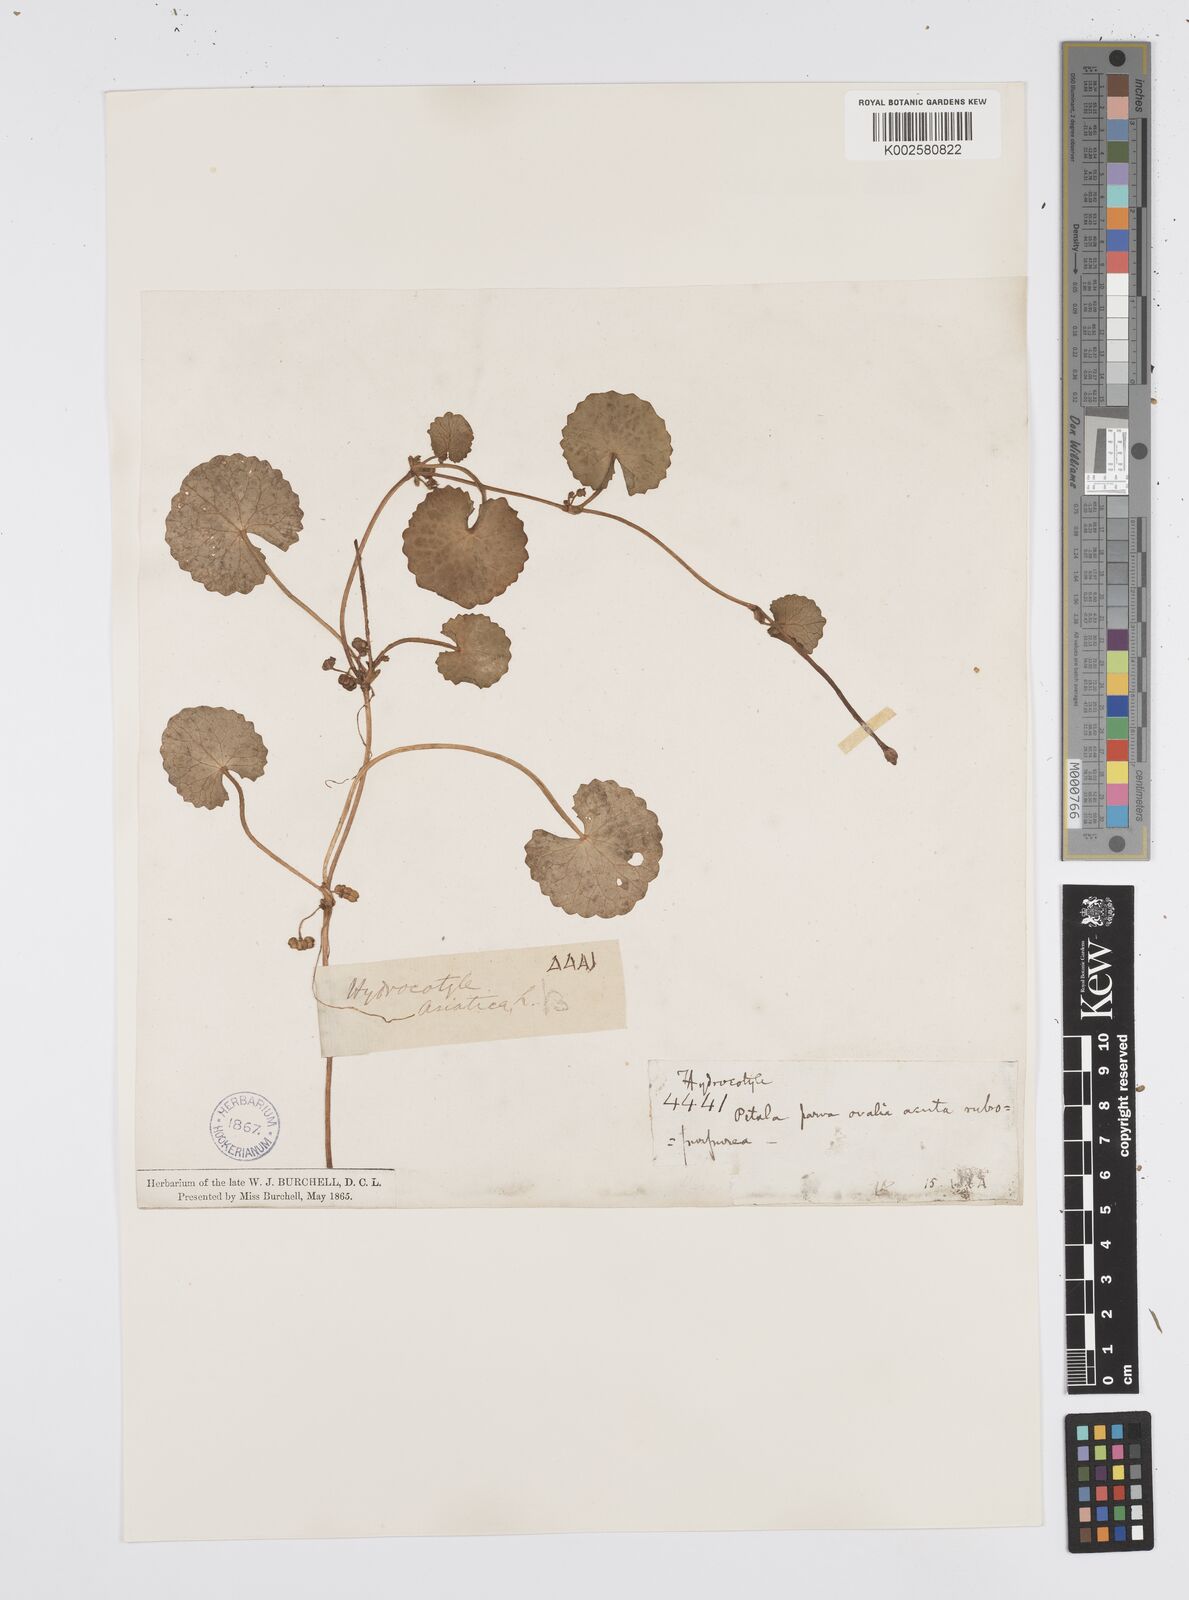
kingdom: Plantae
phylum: Tracheophyta
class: Magnoliopsida
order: Apiales
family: Apiaceae
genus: Centella
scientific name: Centella coriacea
